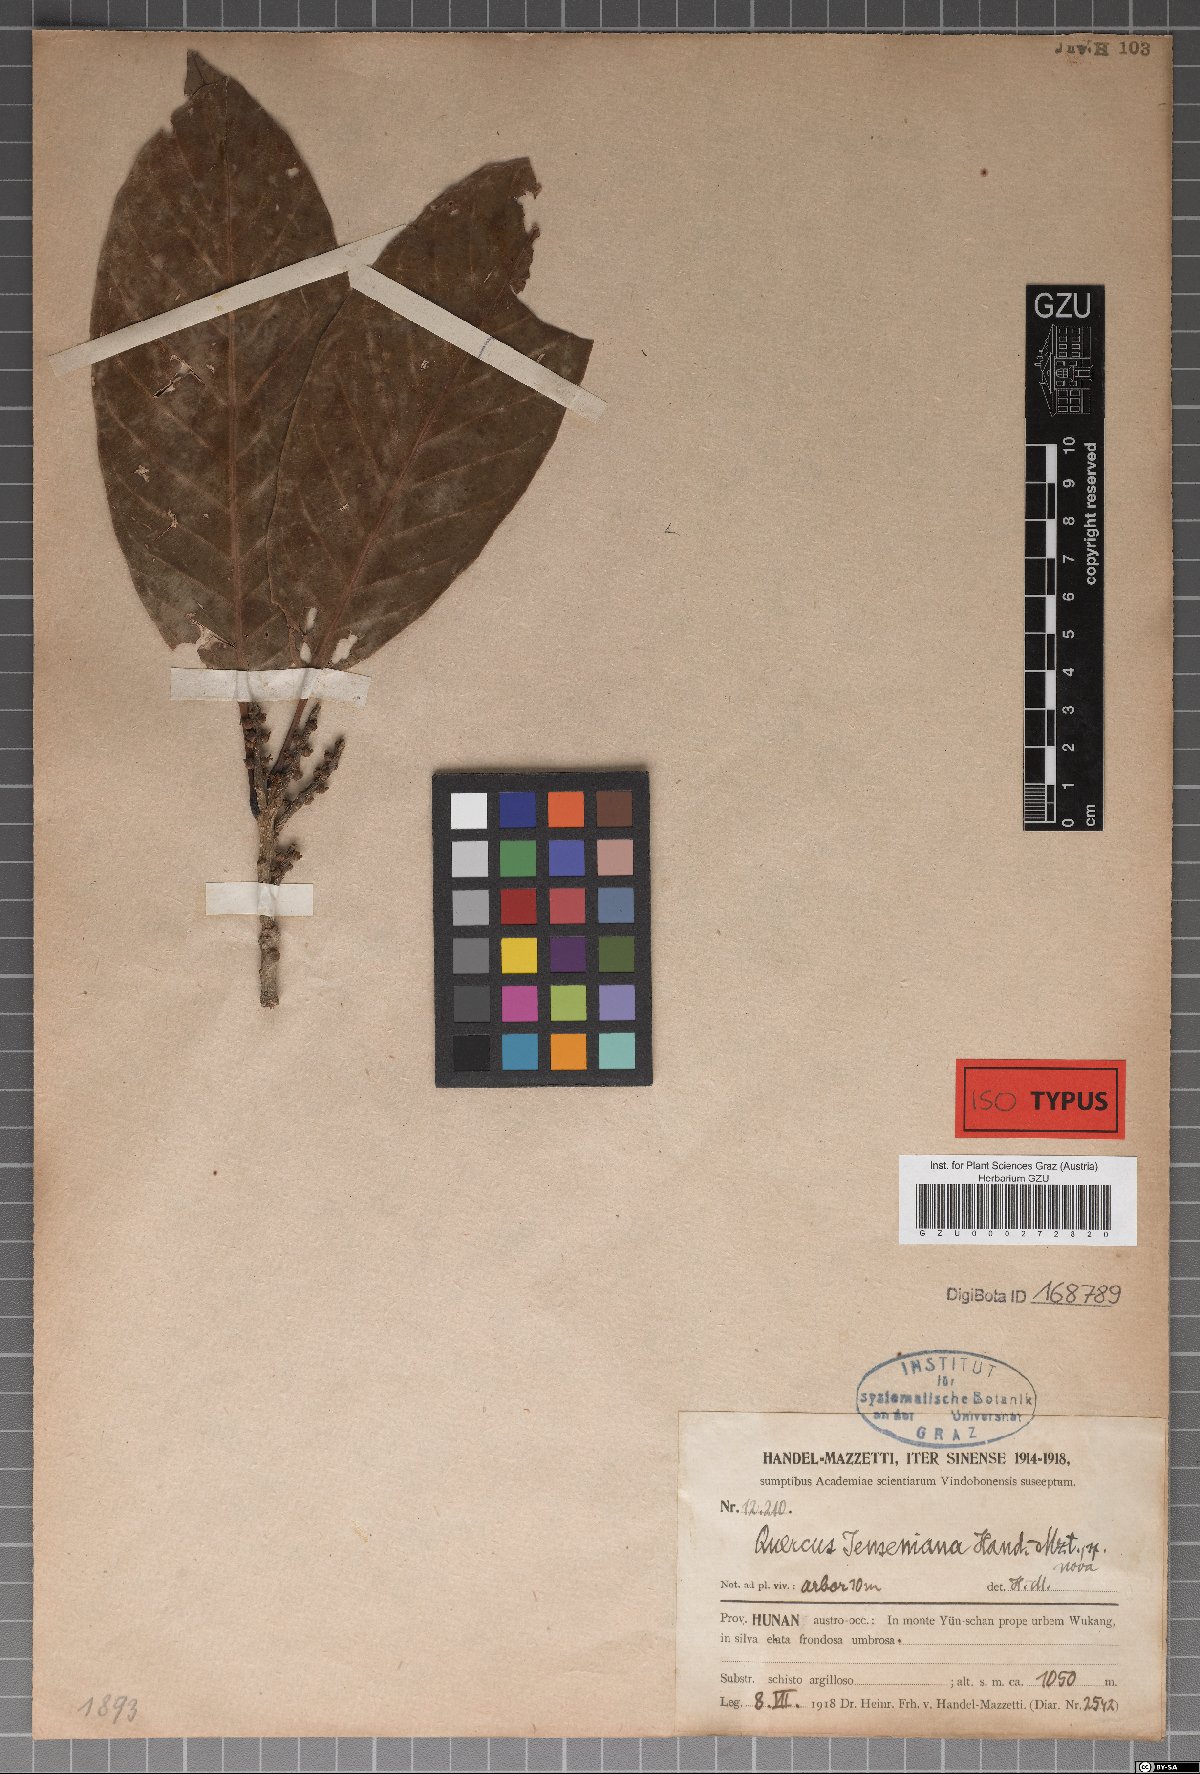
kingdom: Plantae
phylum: Tracheophyta
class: Magnoliopsida
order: Fagales
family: Fagaceae
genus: Quercus
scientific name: Quercus jenseniana
